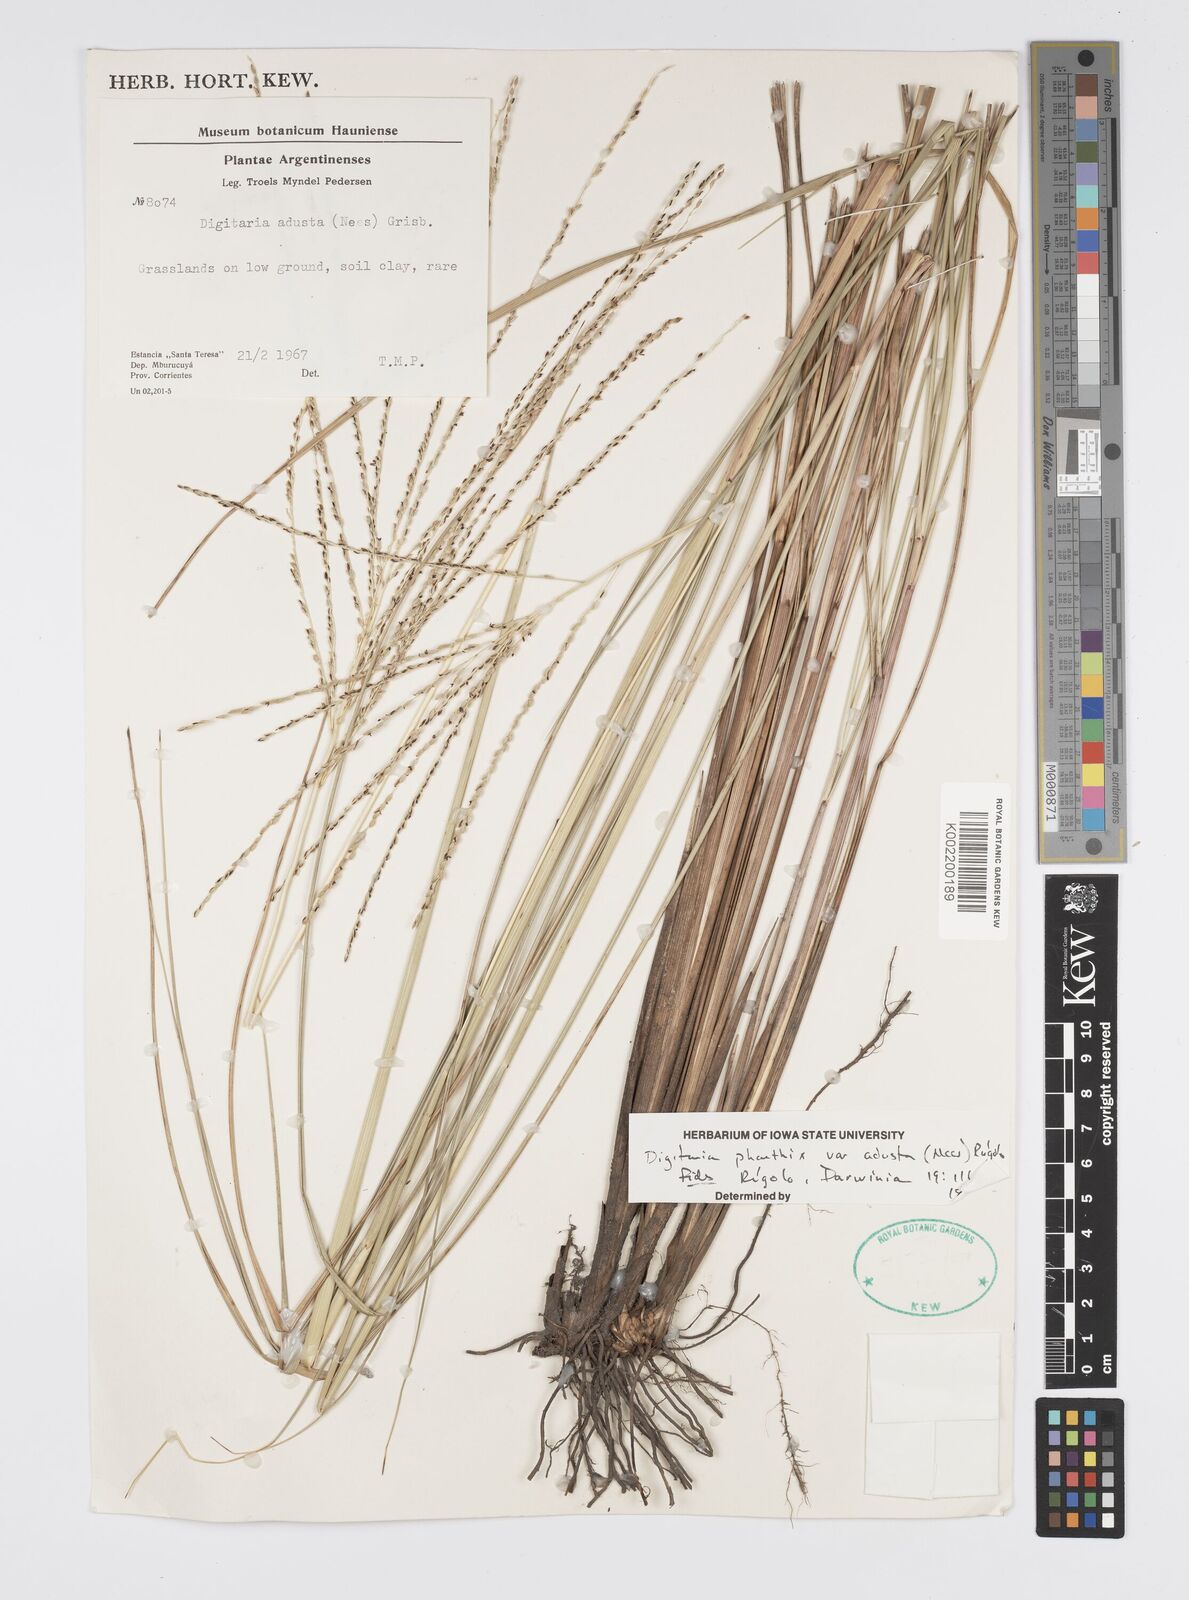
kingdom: Plantae
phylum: Tracheophyta
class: Liliopsida
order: Poales
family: Poaceae
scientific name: Poaceae
